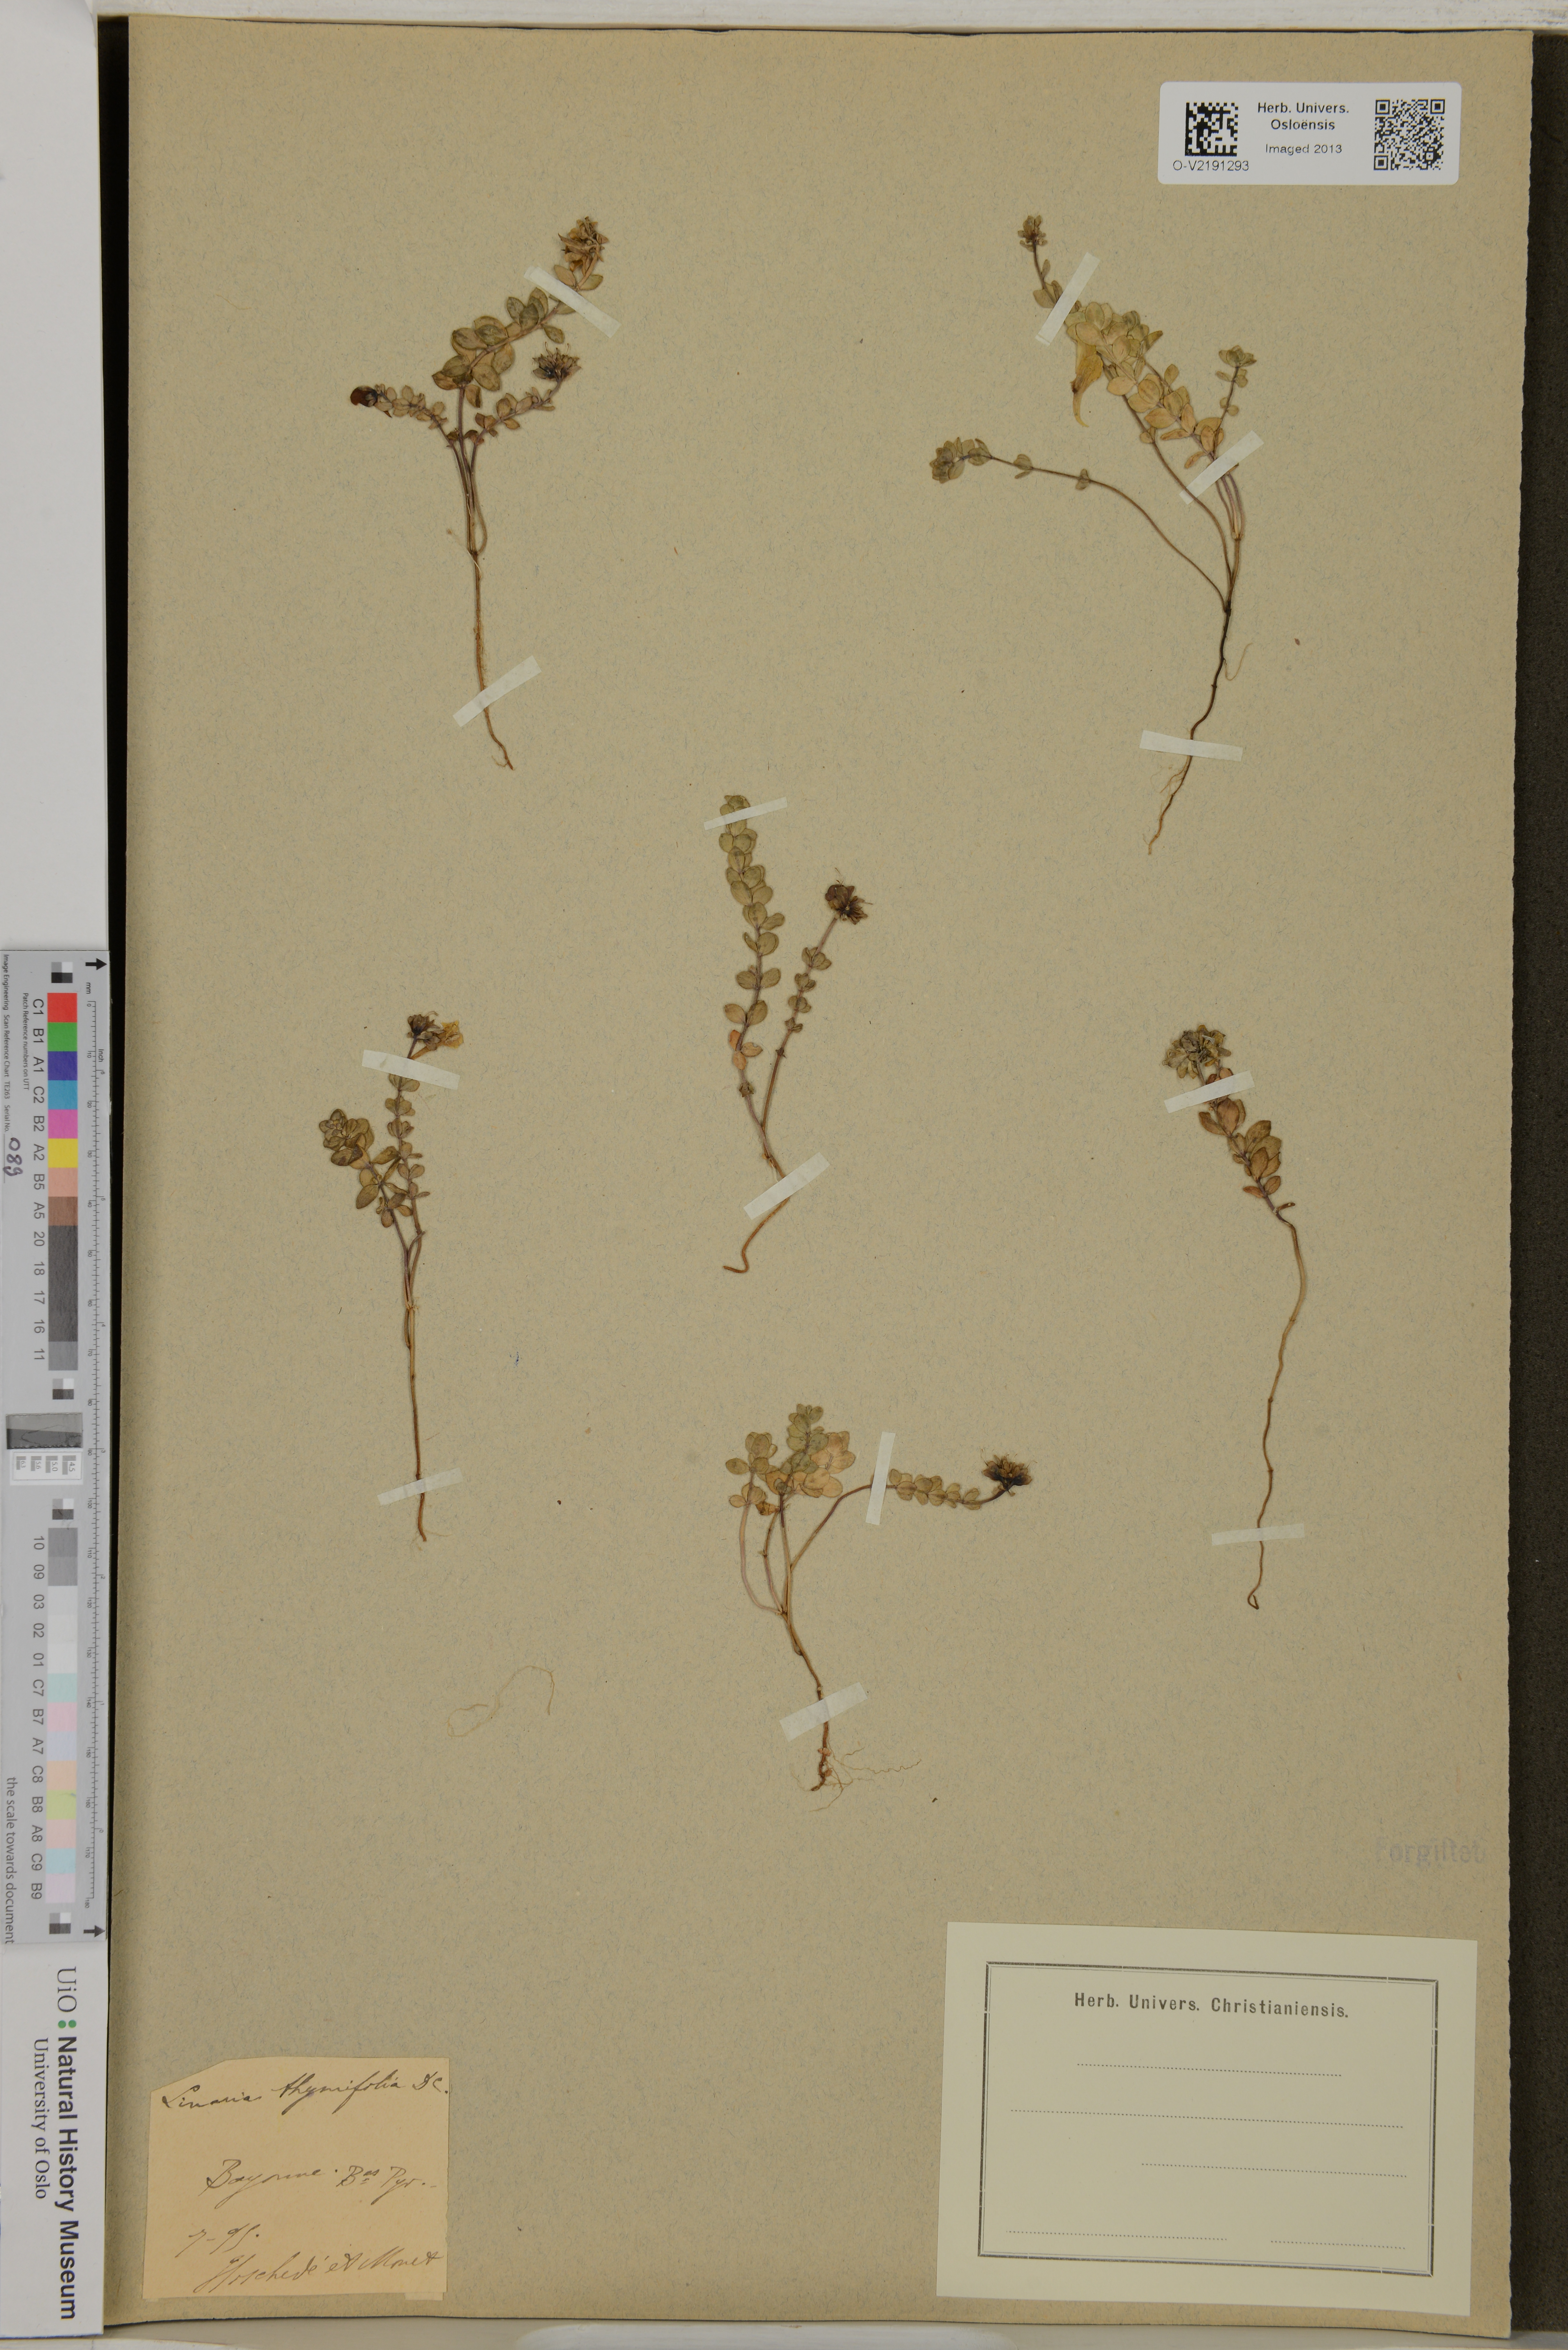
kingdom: Plantae
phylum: Tracheophyta
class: Magnoliopsida
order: Lamiales
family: Plantaginaceae
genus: Linaria
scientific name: Linaria thymifolia
